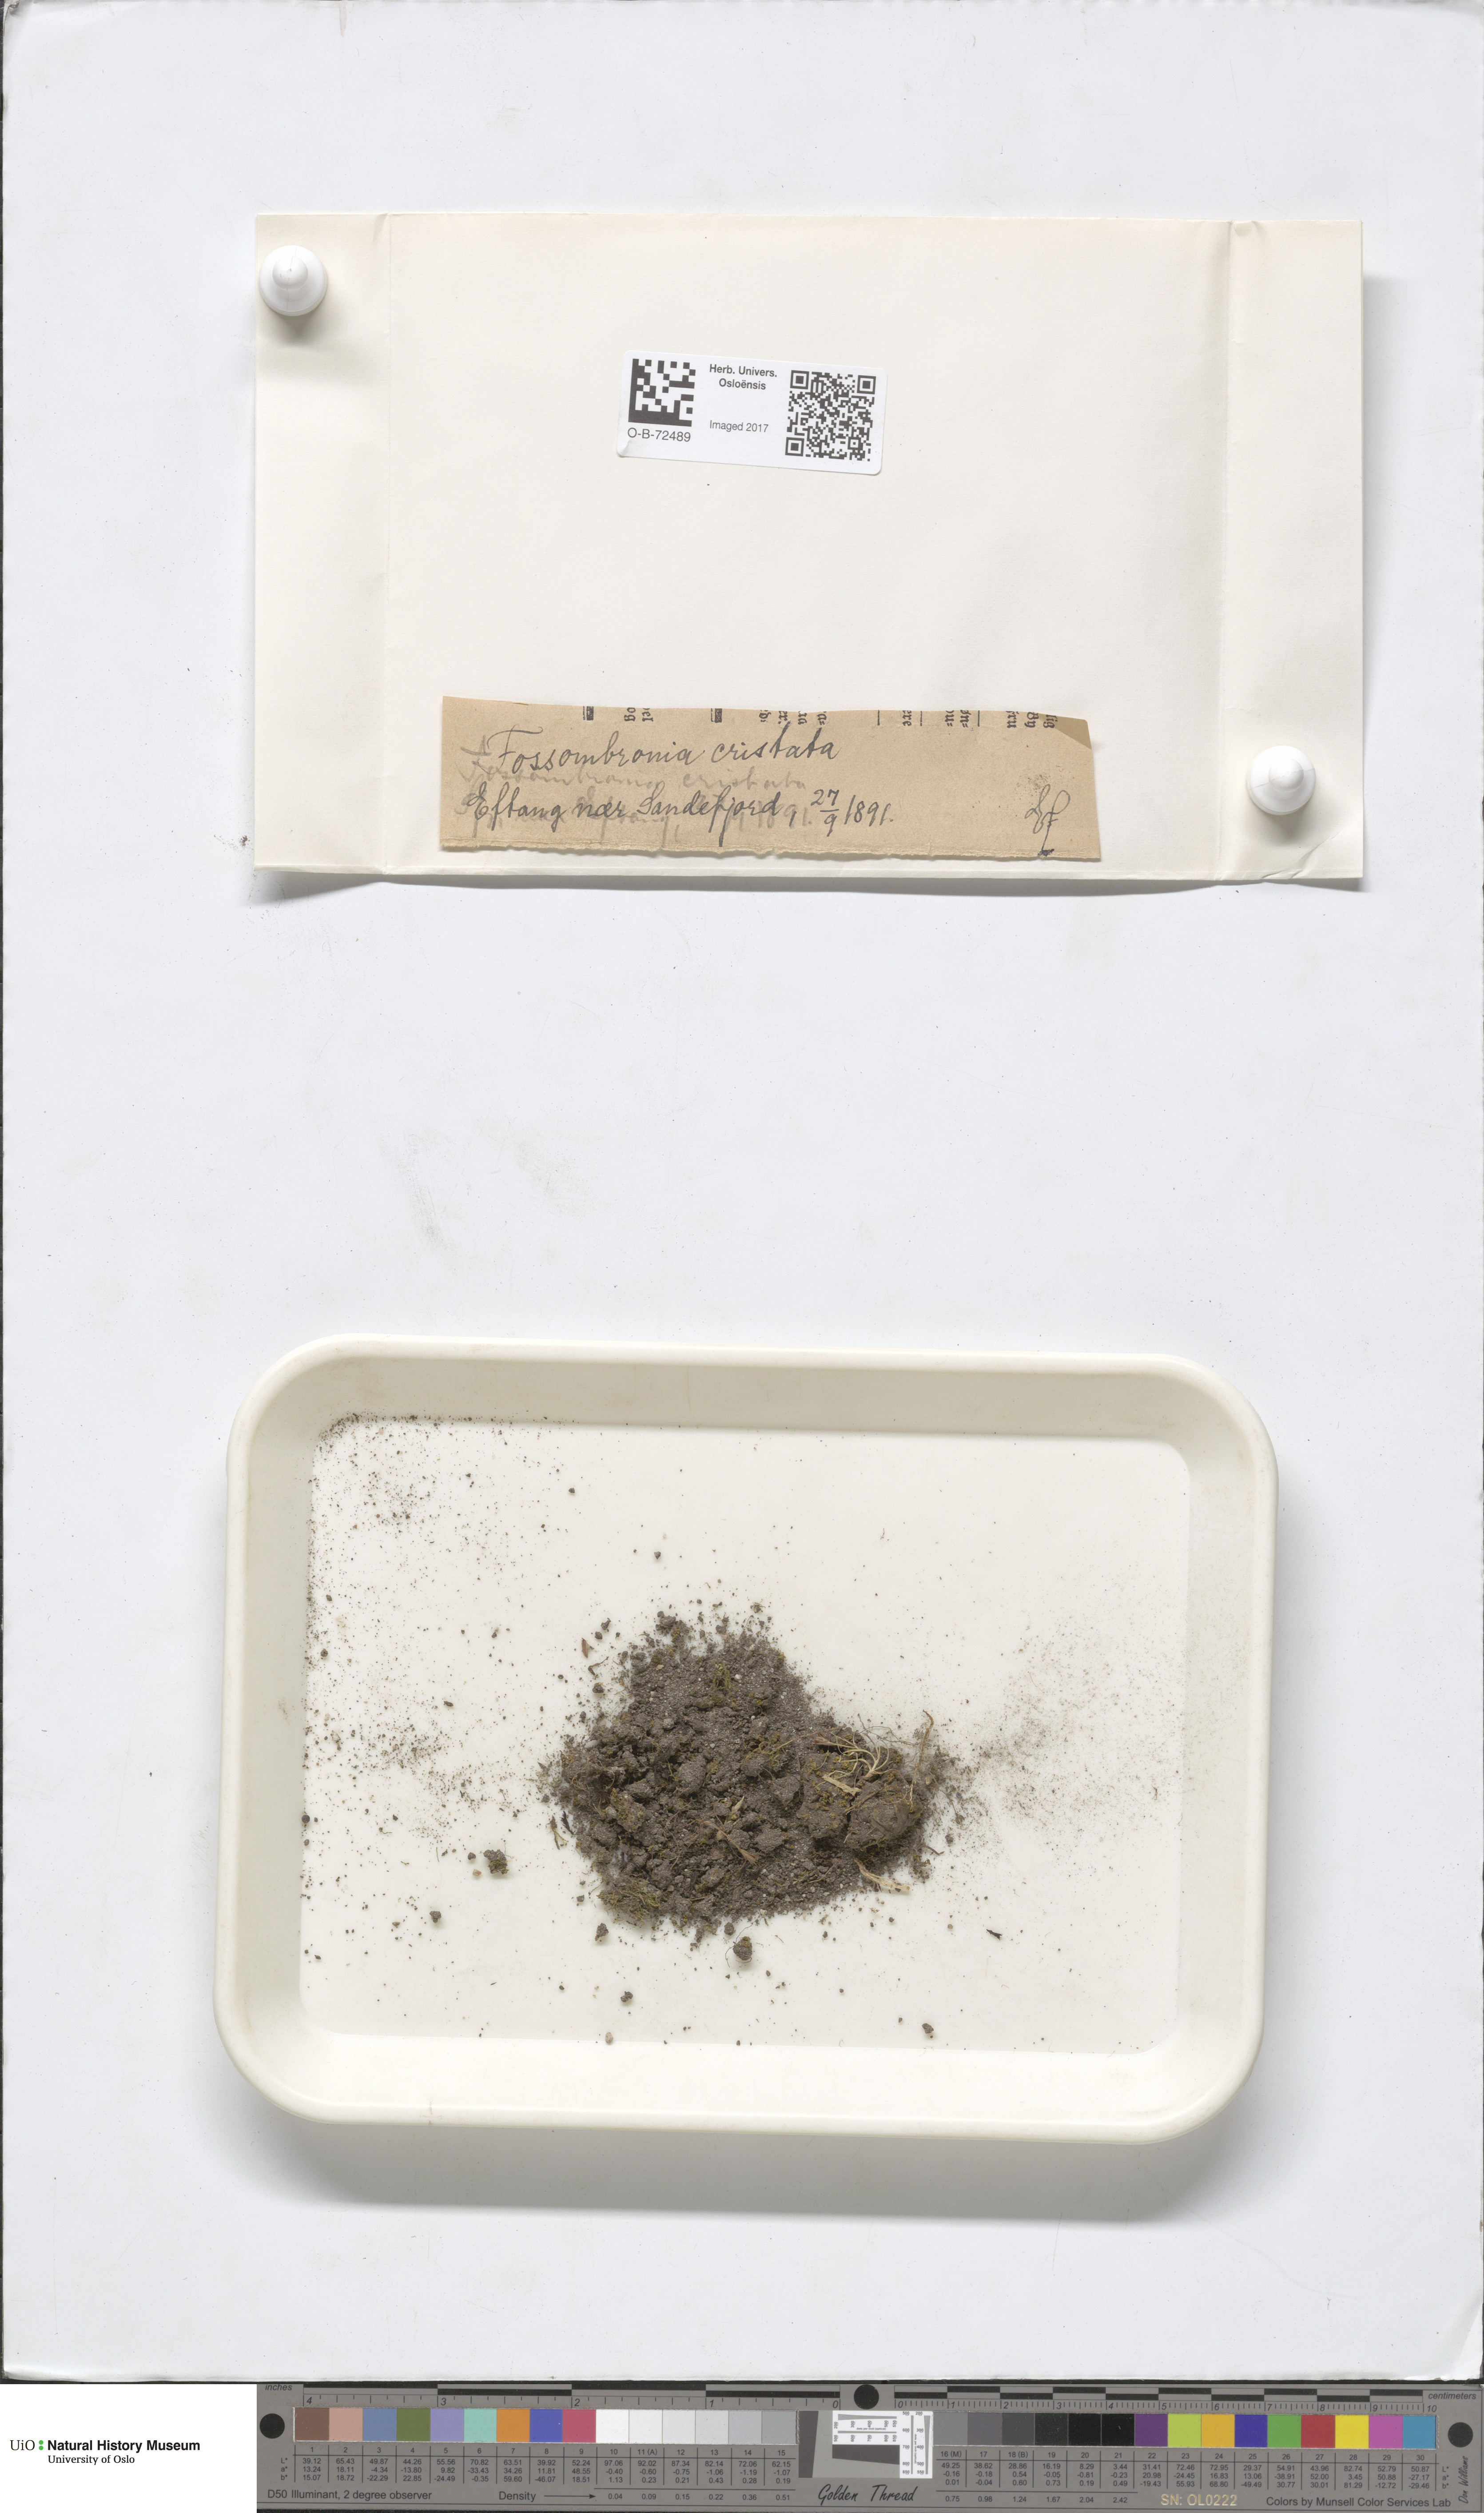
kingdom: Plantae
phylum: Marchantiophyta
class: Jungermanniopsida
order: Fossombroniales
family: Fossombroniaceae
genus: Fossombronia
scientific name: Fossombronia wondraczekii
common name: Acid frillwort
